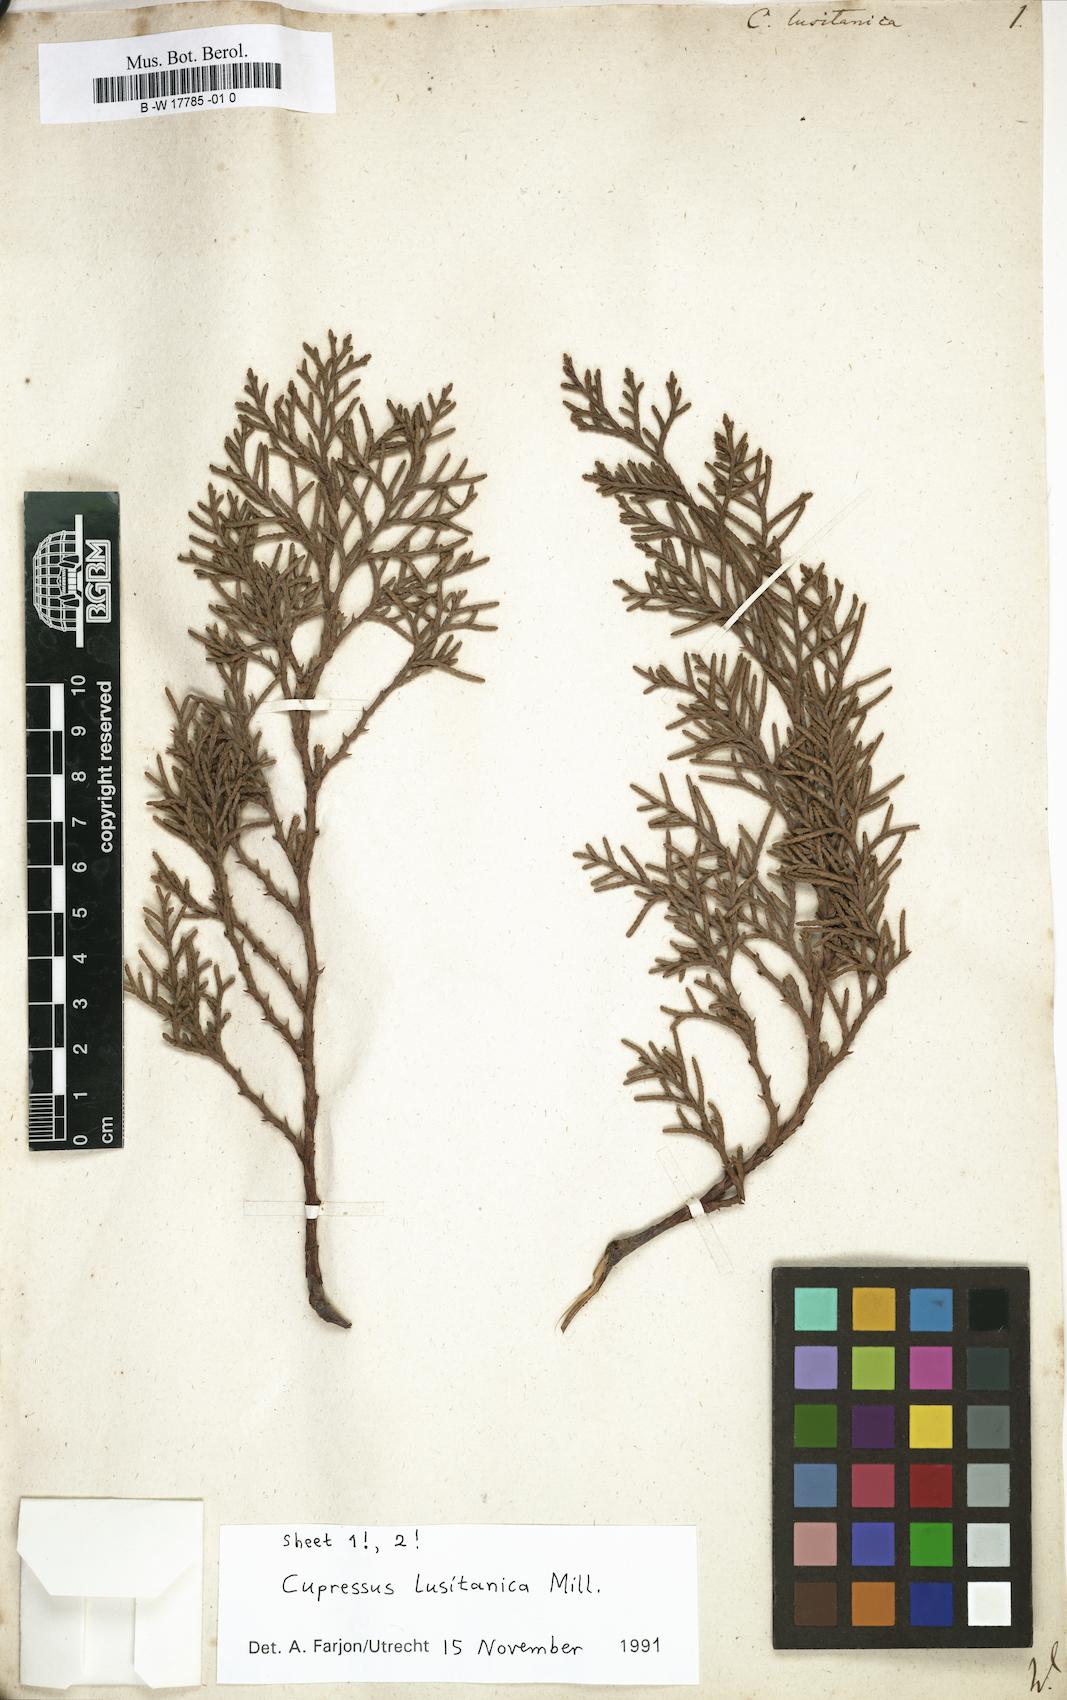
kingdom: Plantae
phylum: Tracheophyta
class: Pinopsida
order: Pinales
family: Cupressaceae
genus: Cupressus
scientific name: Cupressus lusitanica
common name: Mexican cypress
